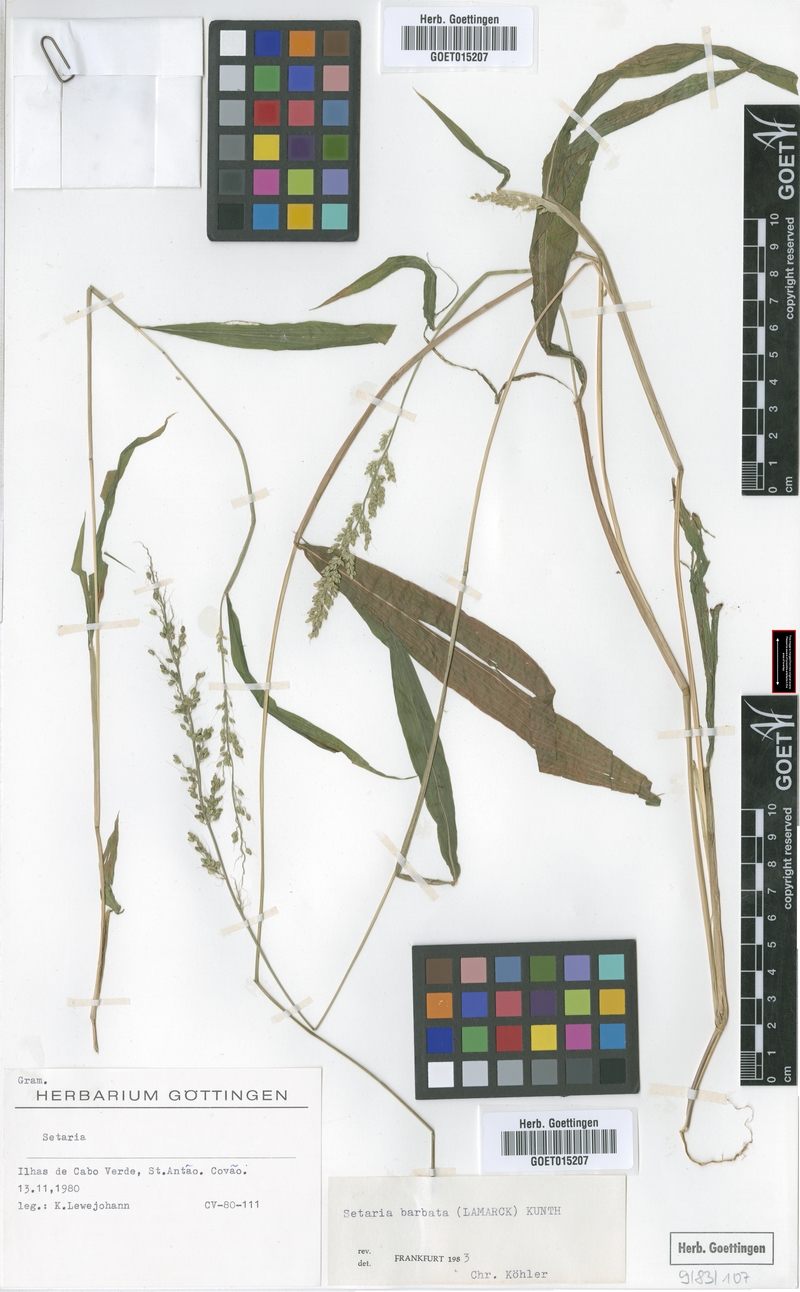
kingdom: Plantae
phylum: Tracheophyta
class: Liliopsida
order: Poales
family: Poaceae
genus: Setaria
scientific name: Setaria barbata
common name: East indian bristlegrass
